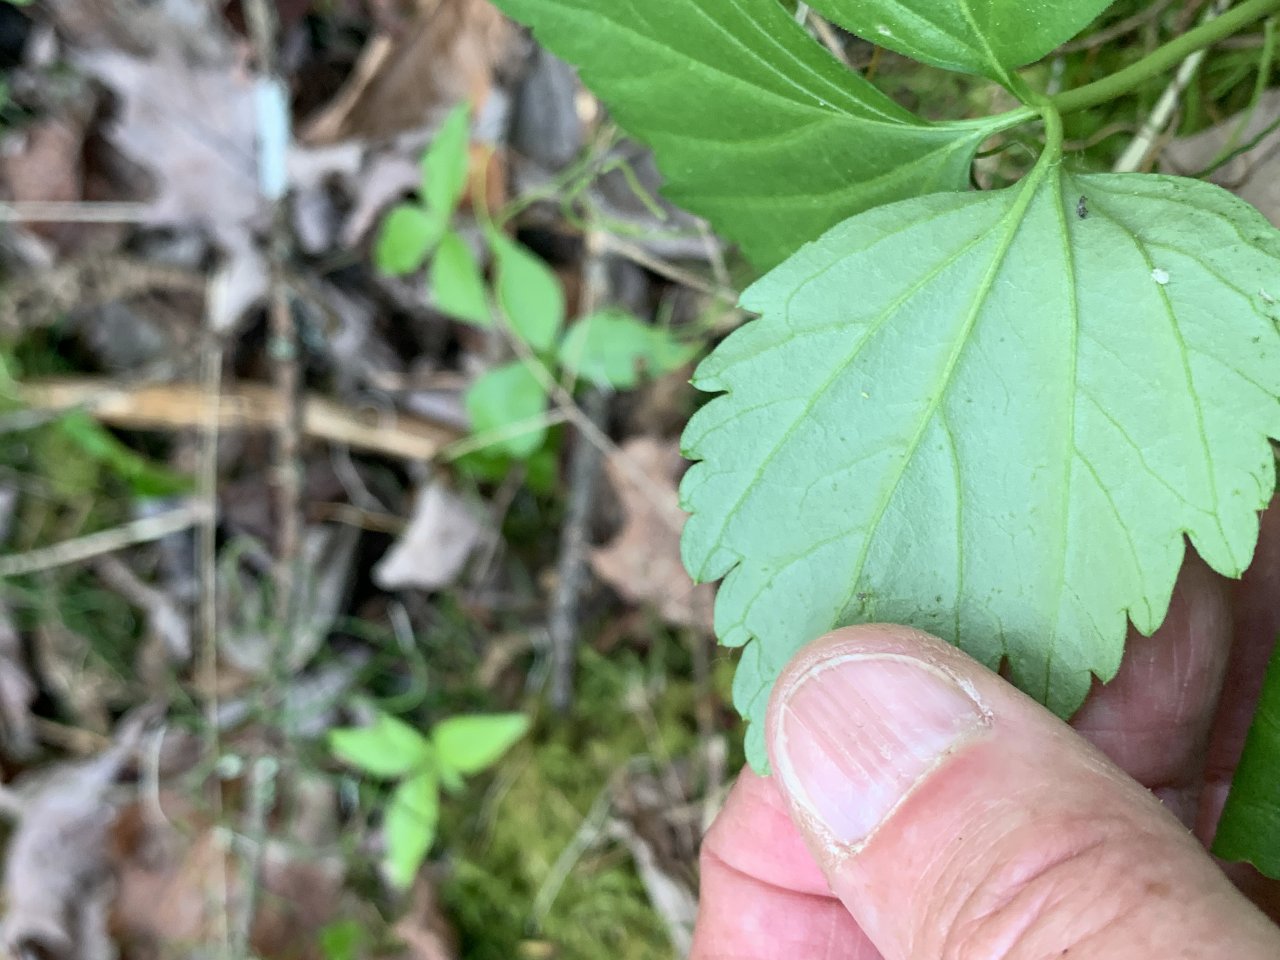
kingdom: Animalia
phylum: Arthropoda
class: Insecta
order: Lepidoptera
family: Pieridae
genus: Pieris
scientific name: Pieris oleracea
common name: Mustard White
